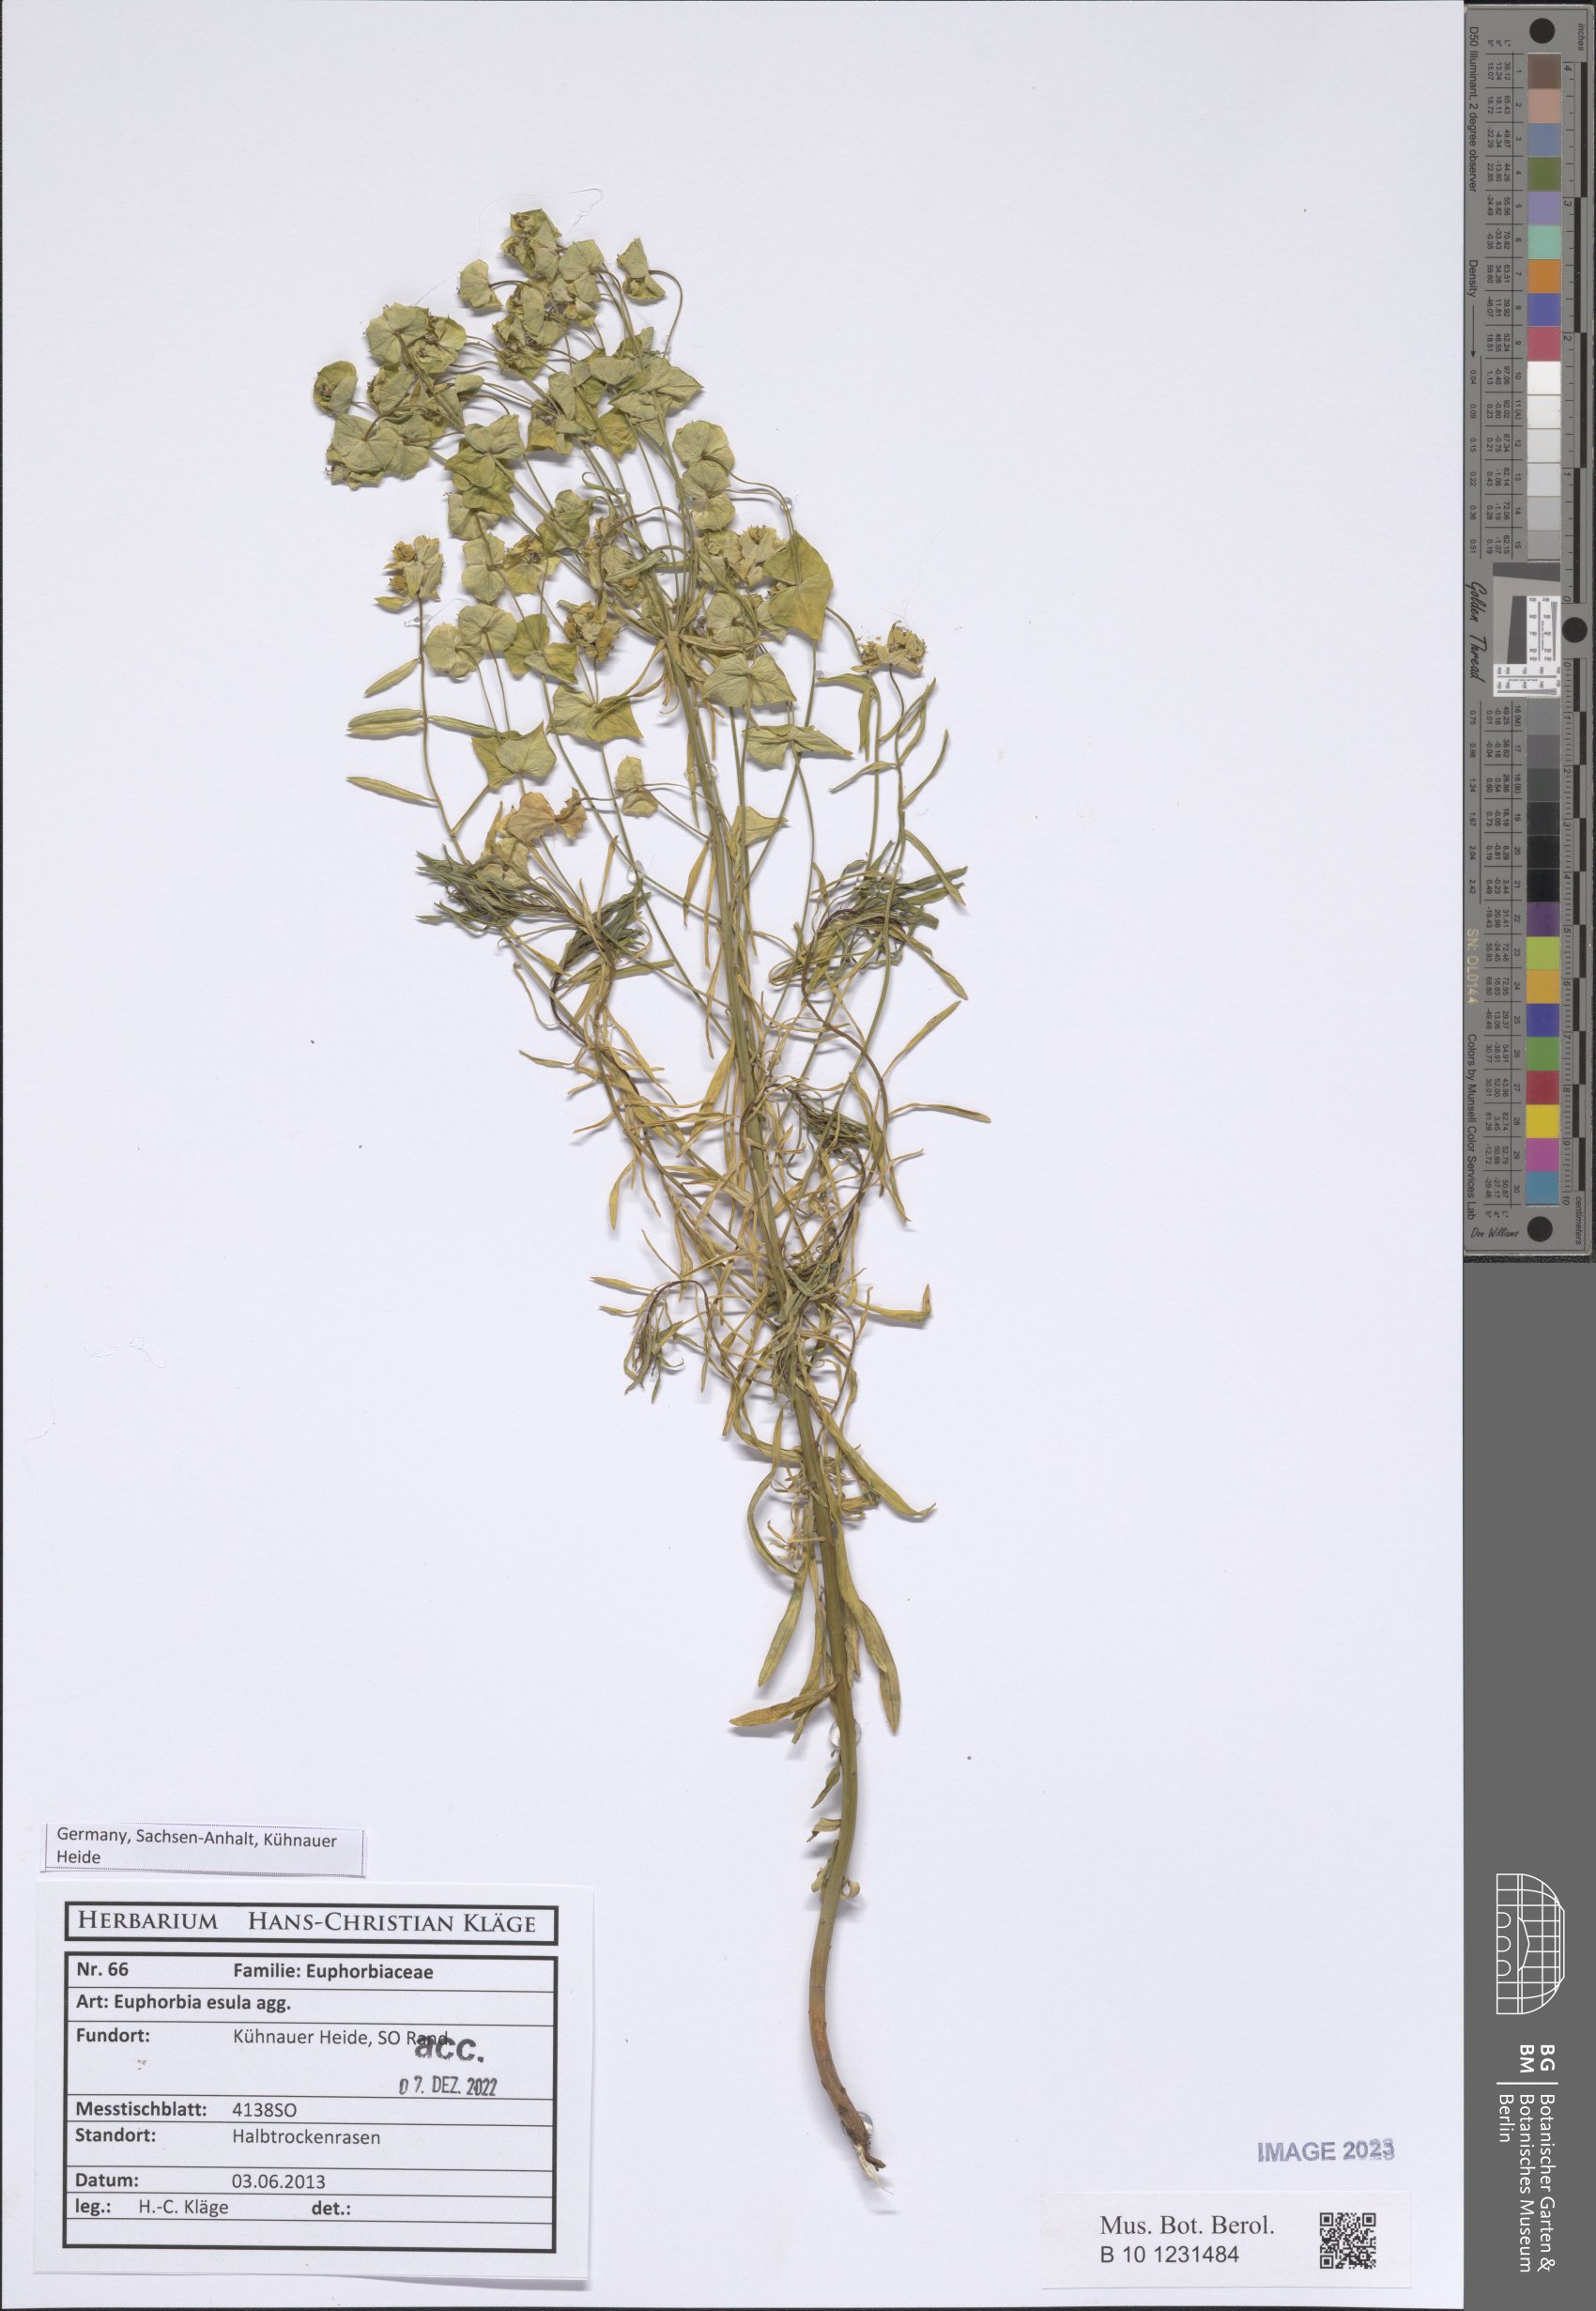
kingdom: Plantae
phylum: Tracheophyta
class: Magnoliopsida
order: Malpighiales
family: Euphorbiaceae
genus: Euphorbia
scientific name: Euphorbia esula
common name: Leafy spurge
